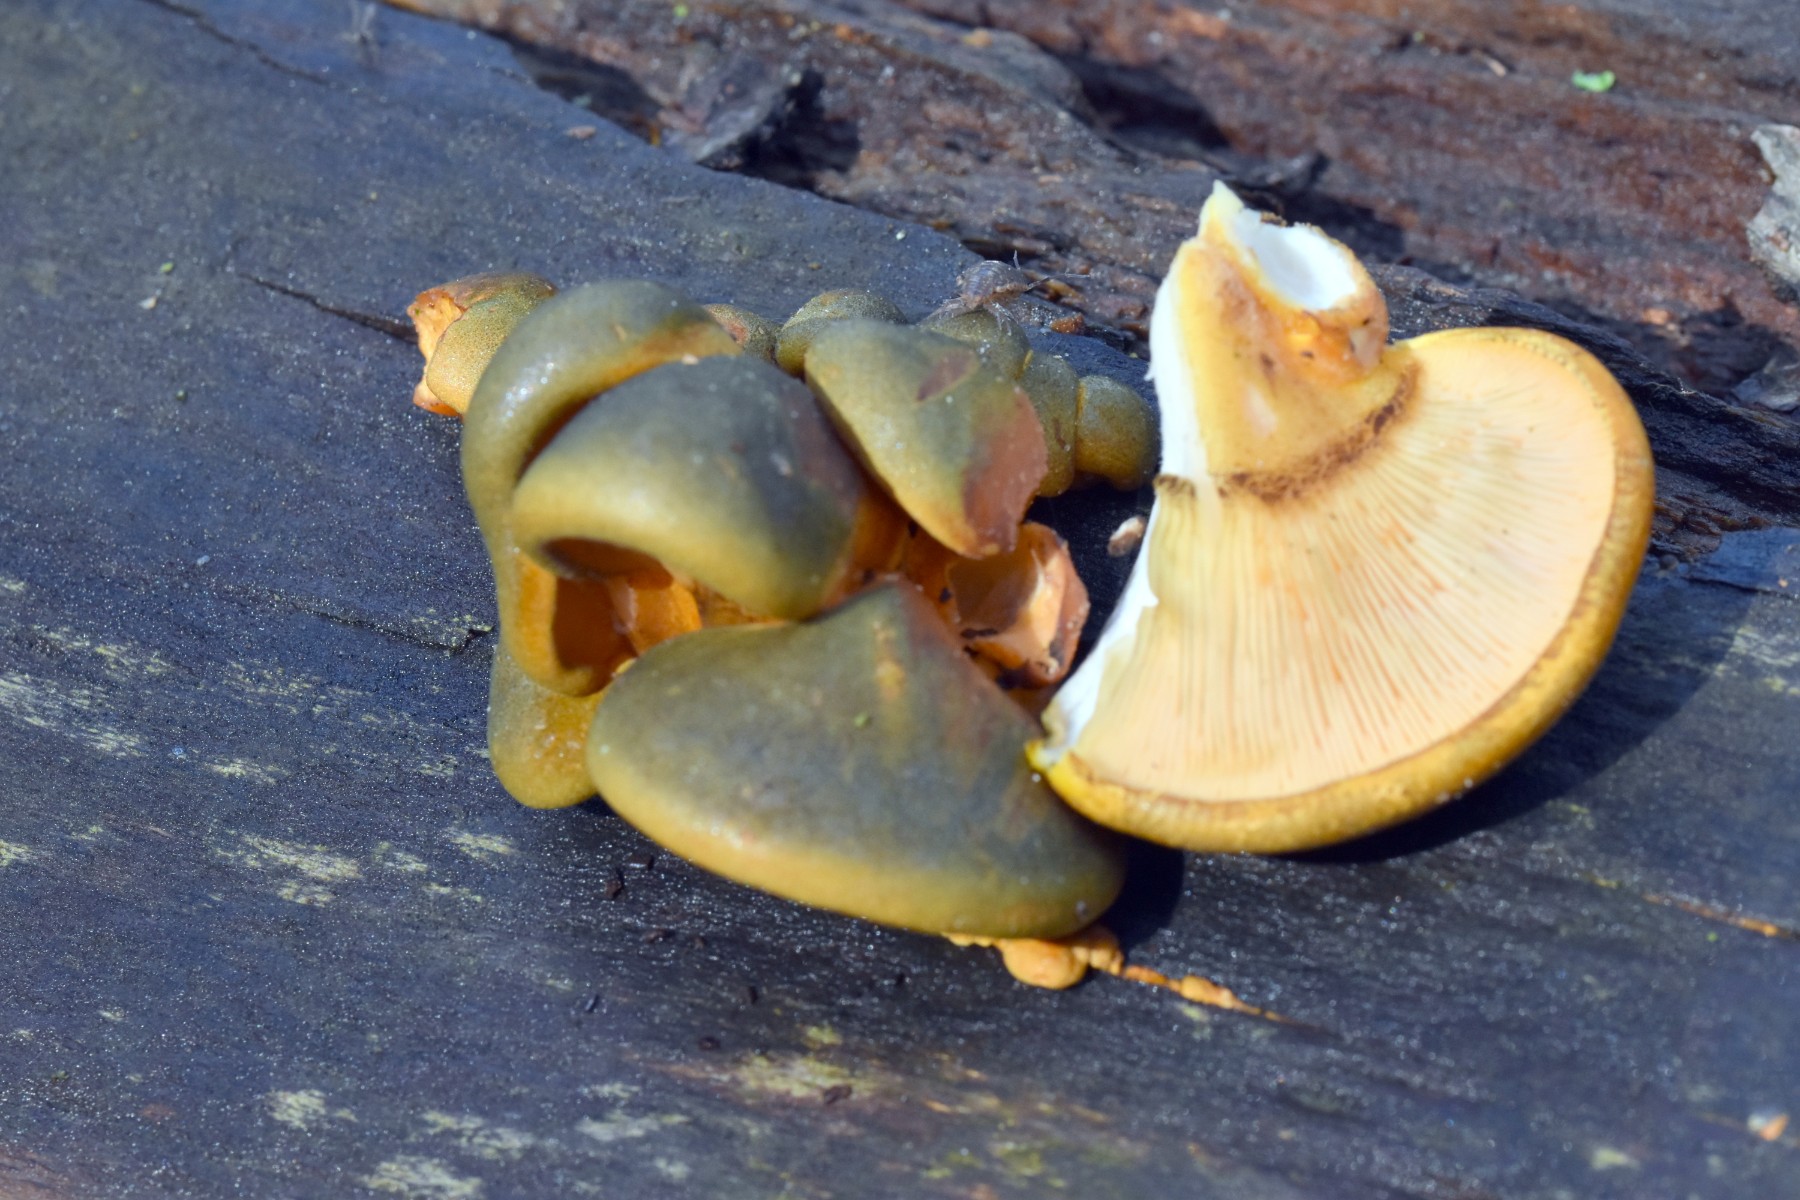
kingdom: Fungi
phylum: Basidiomycota
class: Agaricomycetes
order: Agaricales
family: Sarcomyxaceae
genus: Sarcomyxa
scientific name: Sarcomyxa serotina
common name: gummihat
